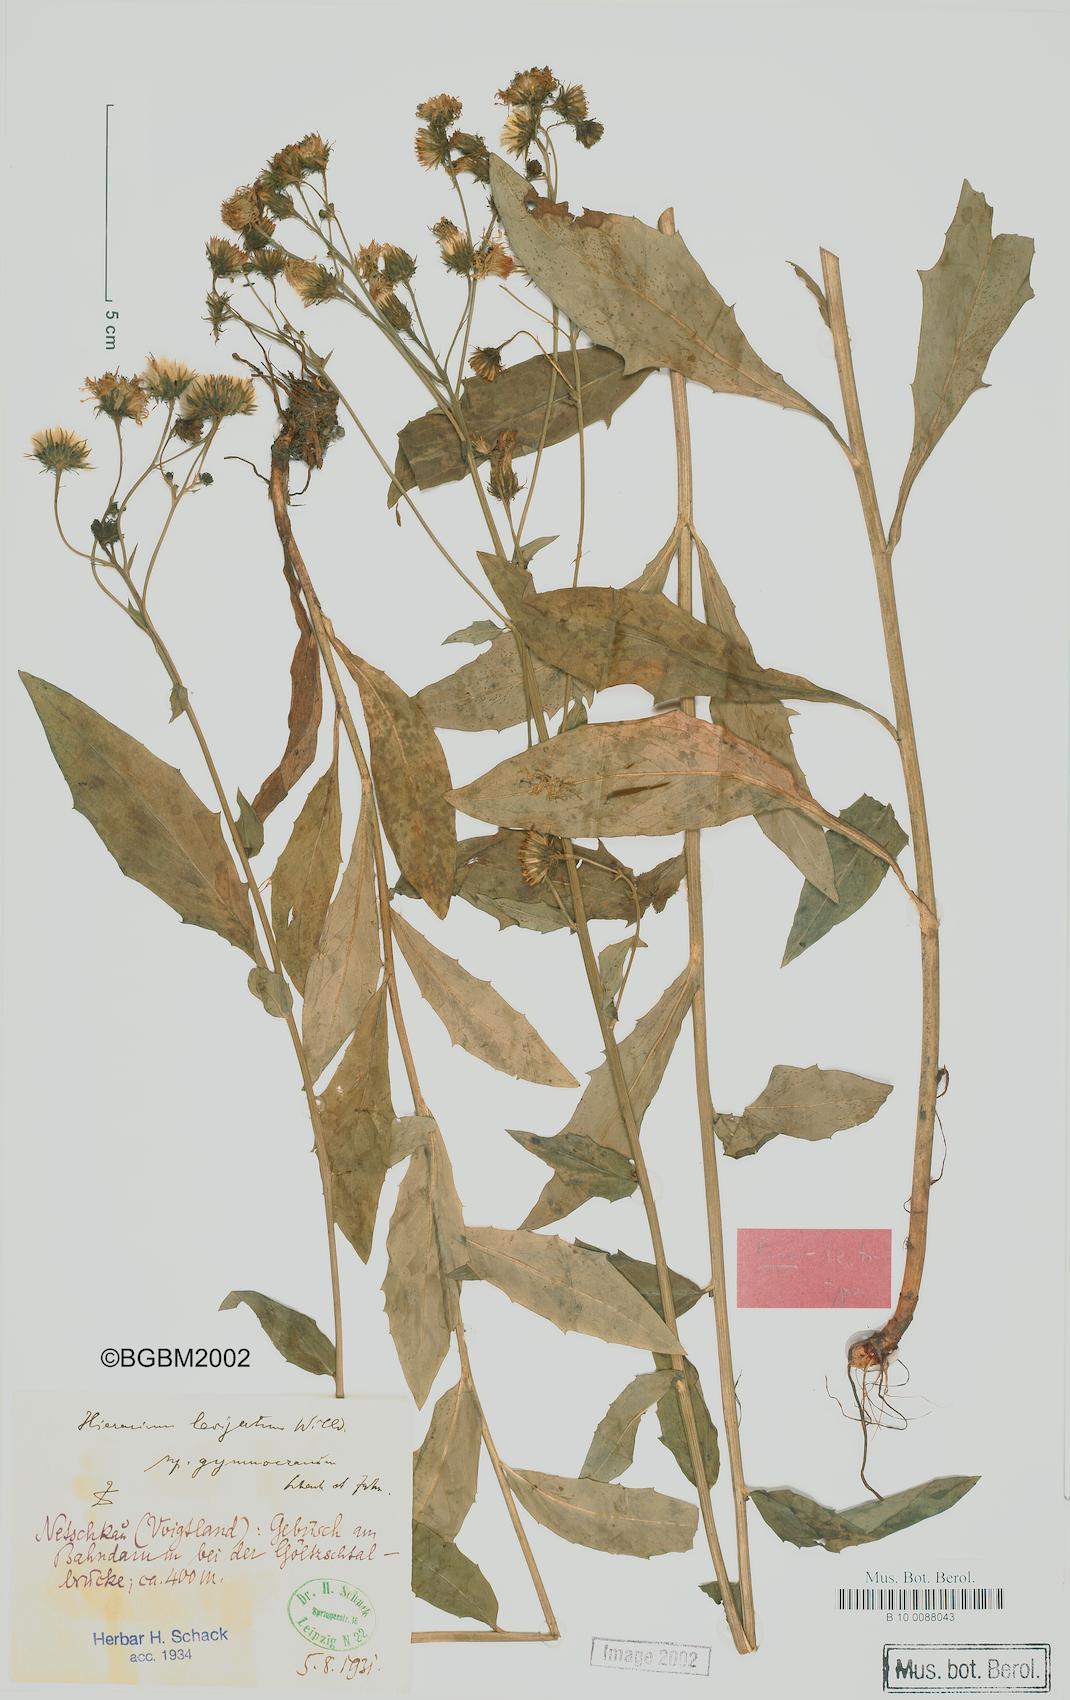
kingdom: Plantae
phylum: Tracheophyta
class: Magnoliopsida
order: Asterales
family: Asteraceae
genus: Hieracium
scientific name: Hieracium laevigatum
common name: Smooth hawkweed
